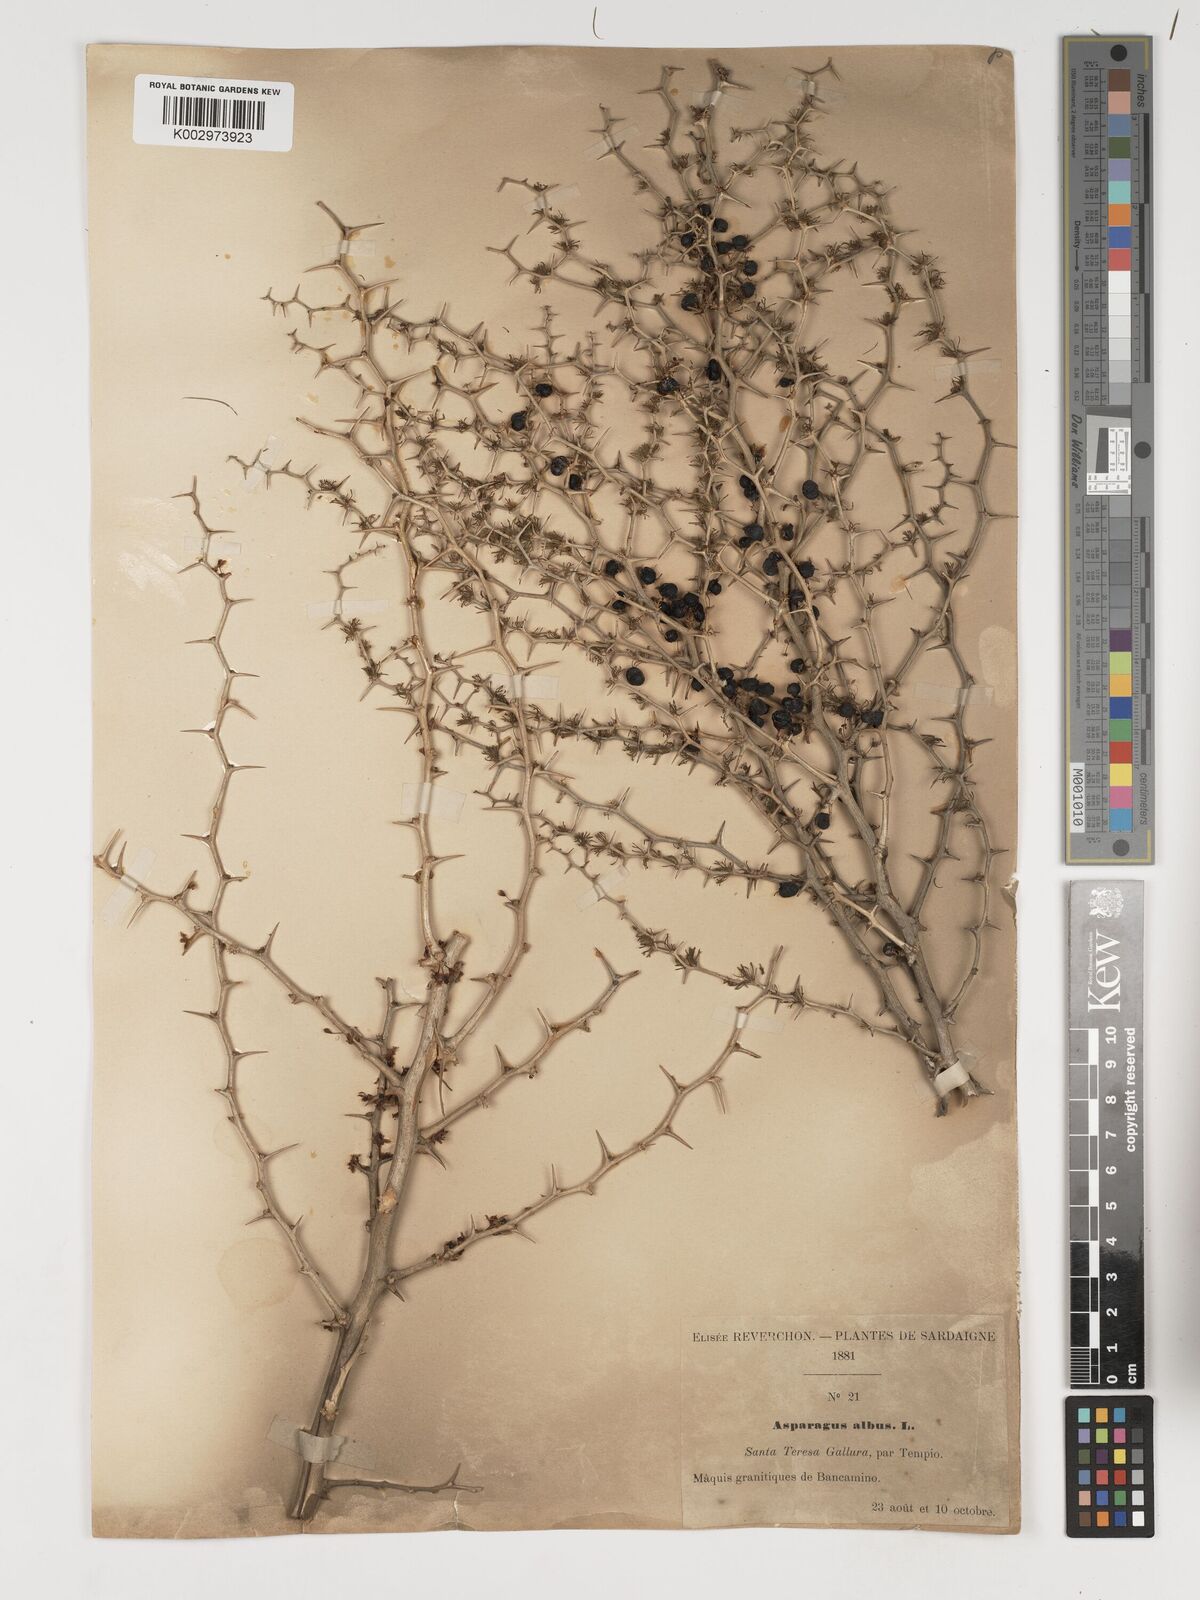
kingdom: Plantae
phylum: Tracheophyta
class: Liliopsida
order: Asparagales
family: Asparagaceae
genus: Asparagus
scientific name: Asparagus albus
